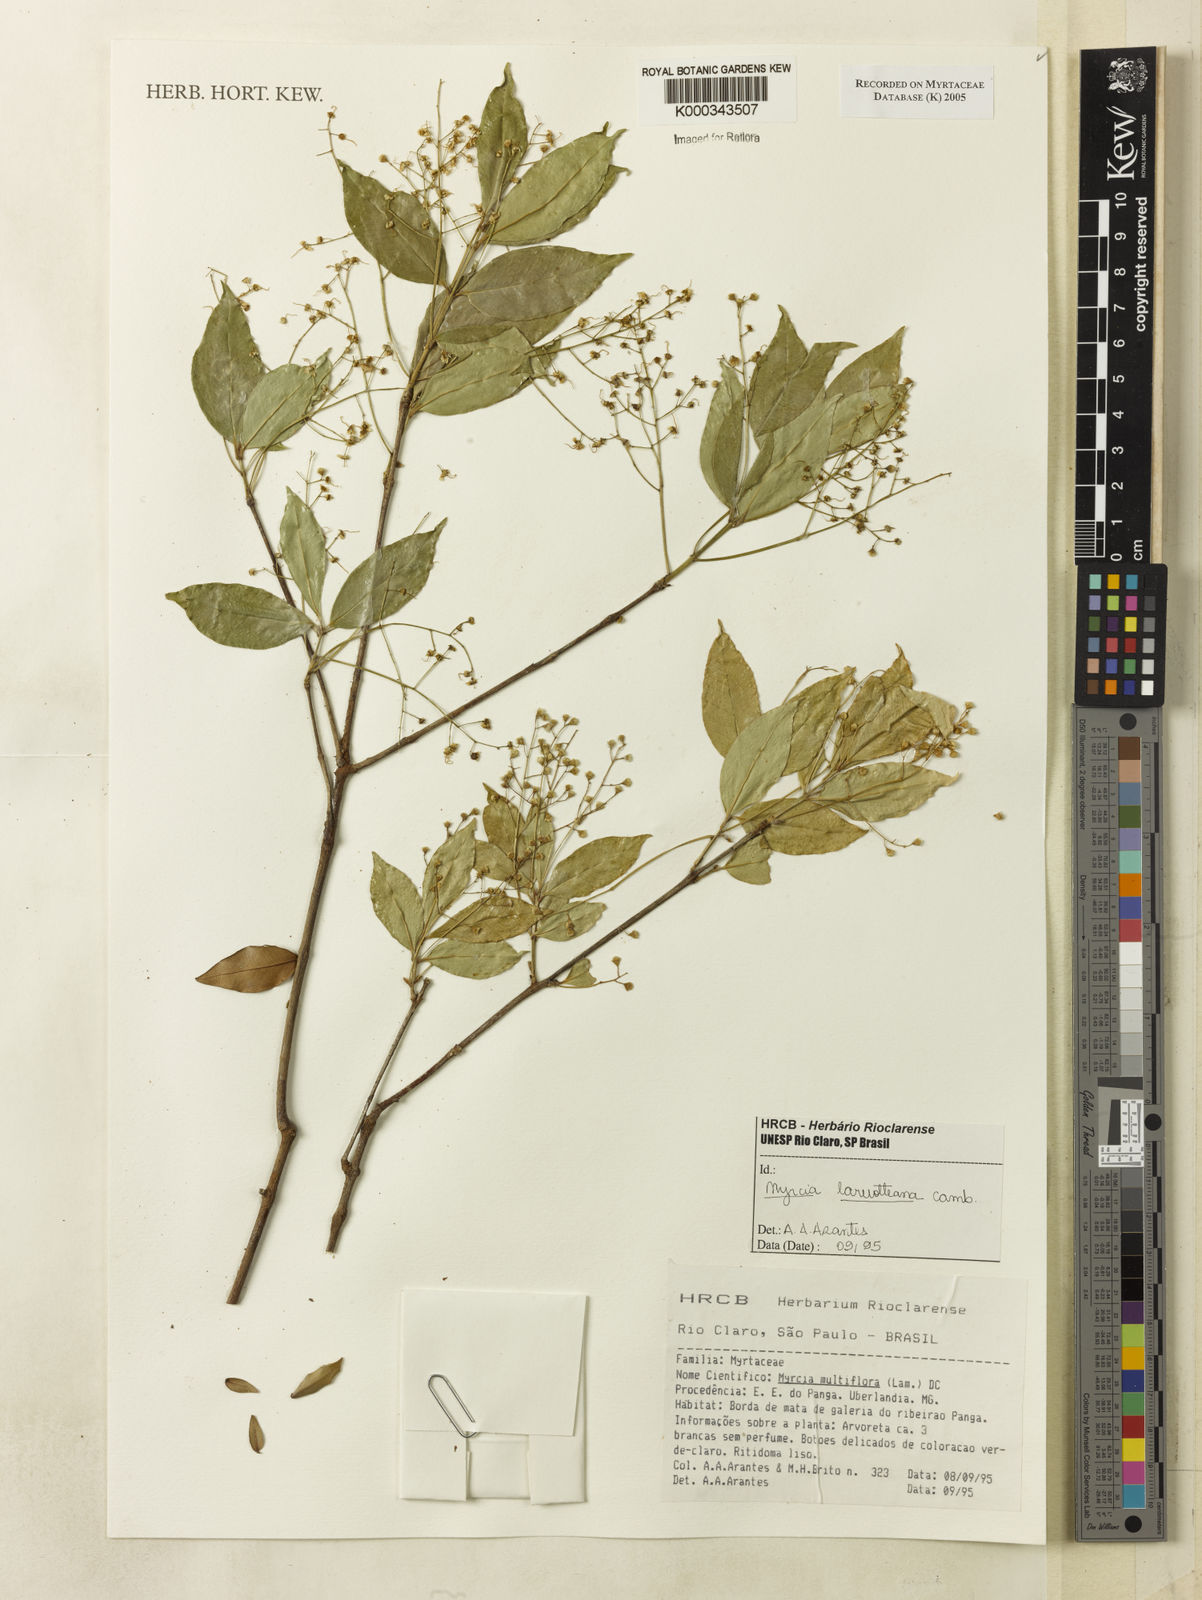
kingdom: Plantae
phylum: Tracheophyta
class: Magnoliopsida
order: Myrtales
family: Myrtaceae
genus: Myrcia
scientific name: Myrcia laruotteana
